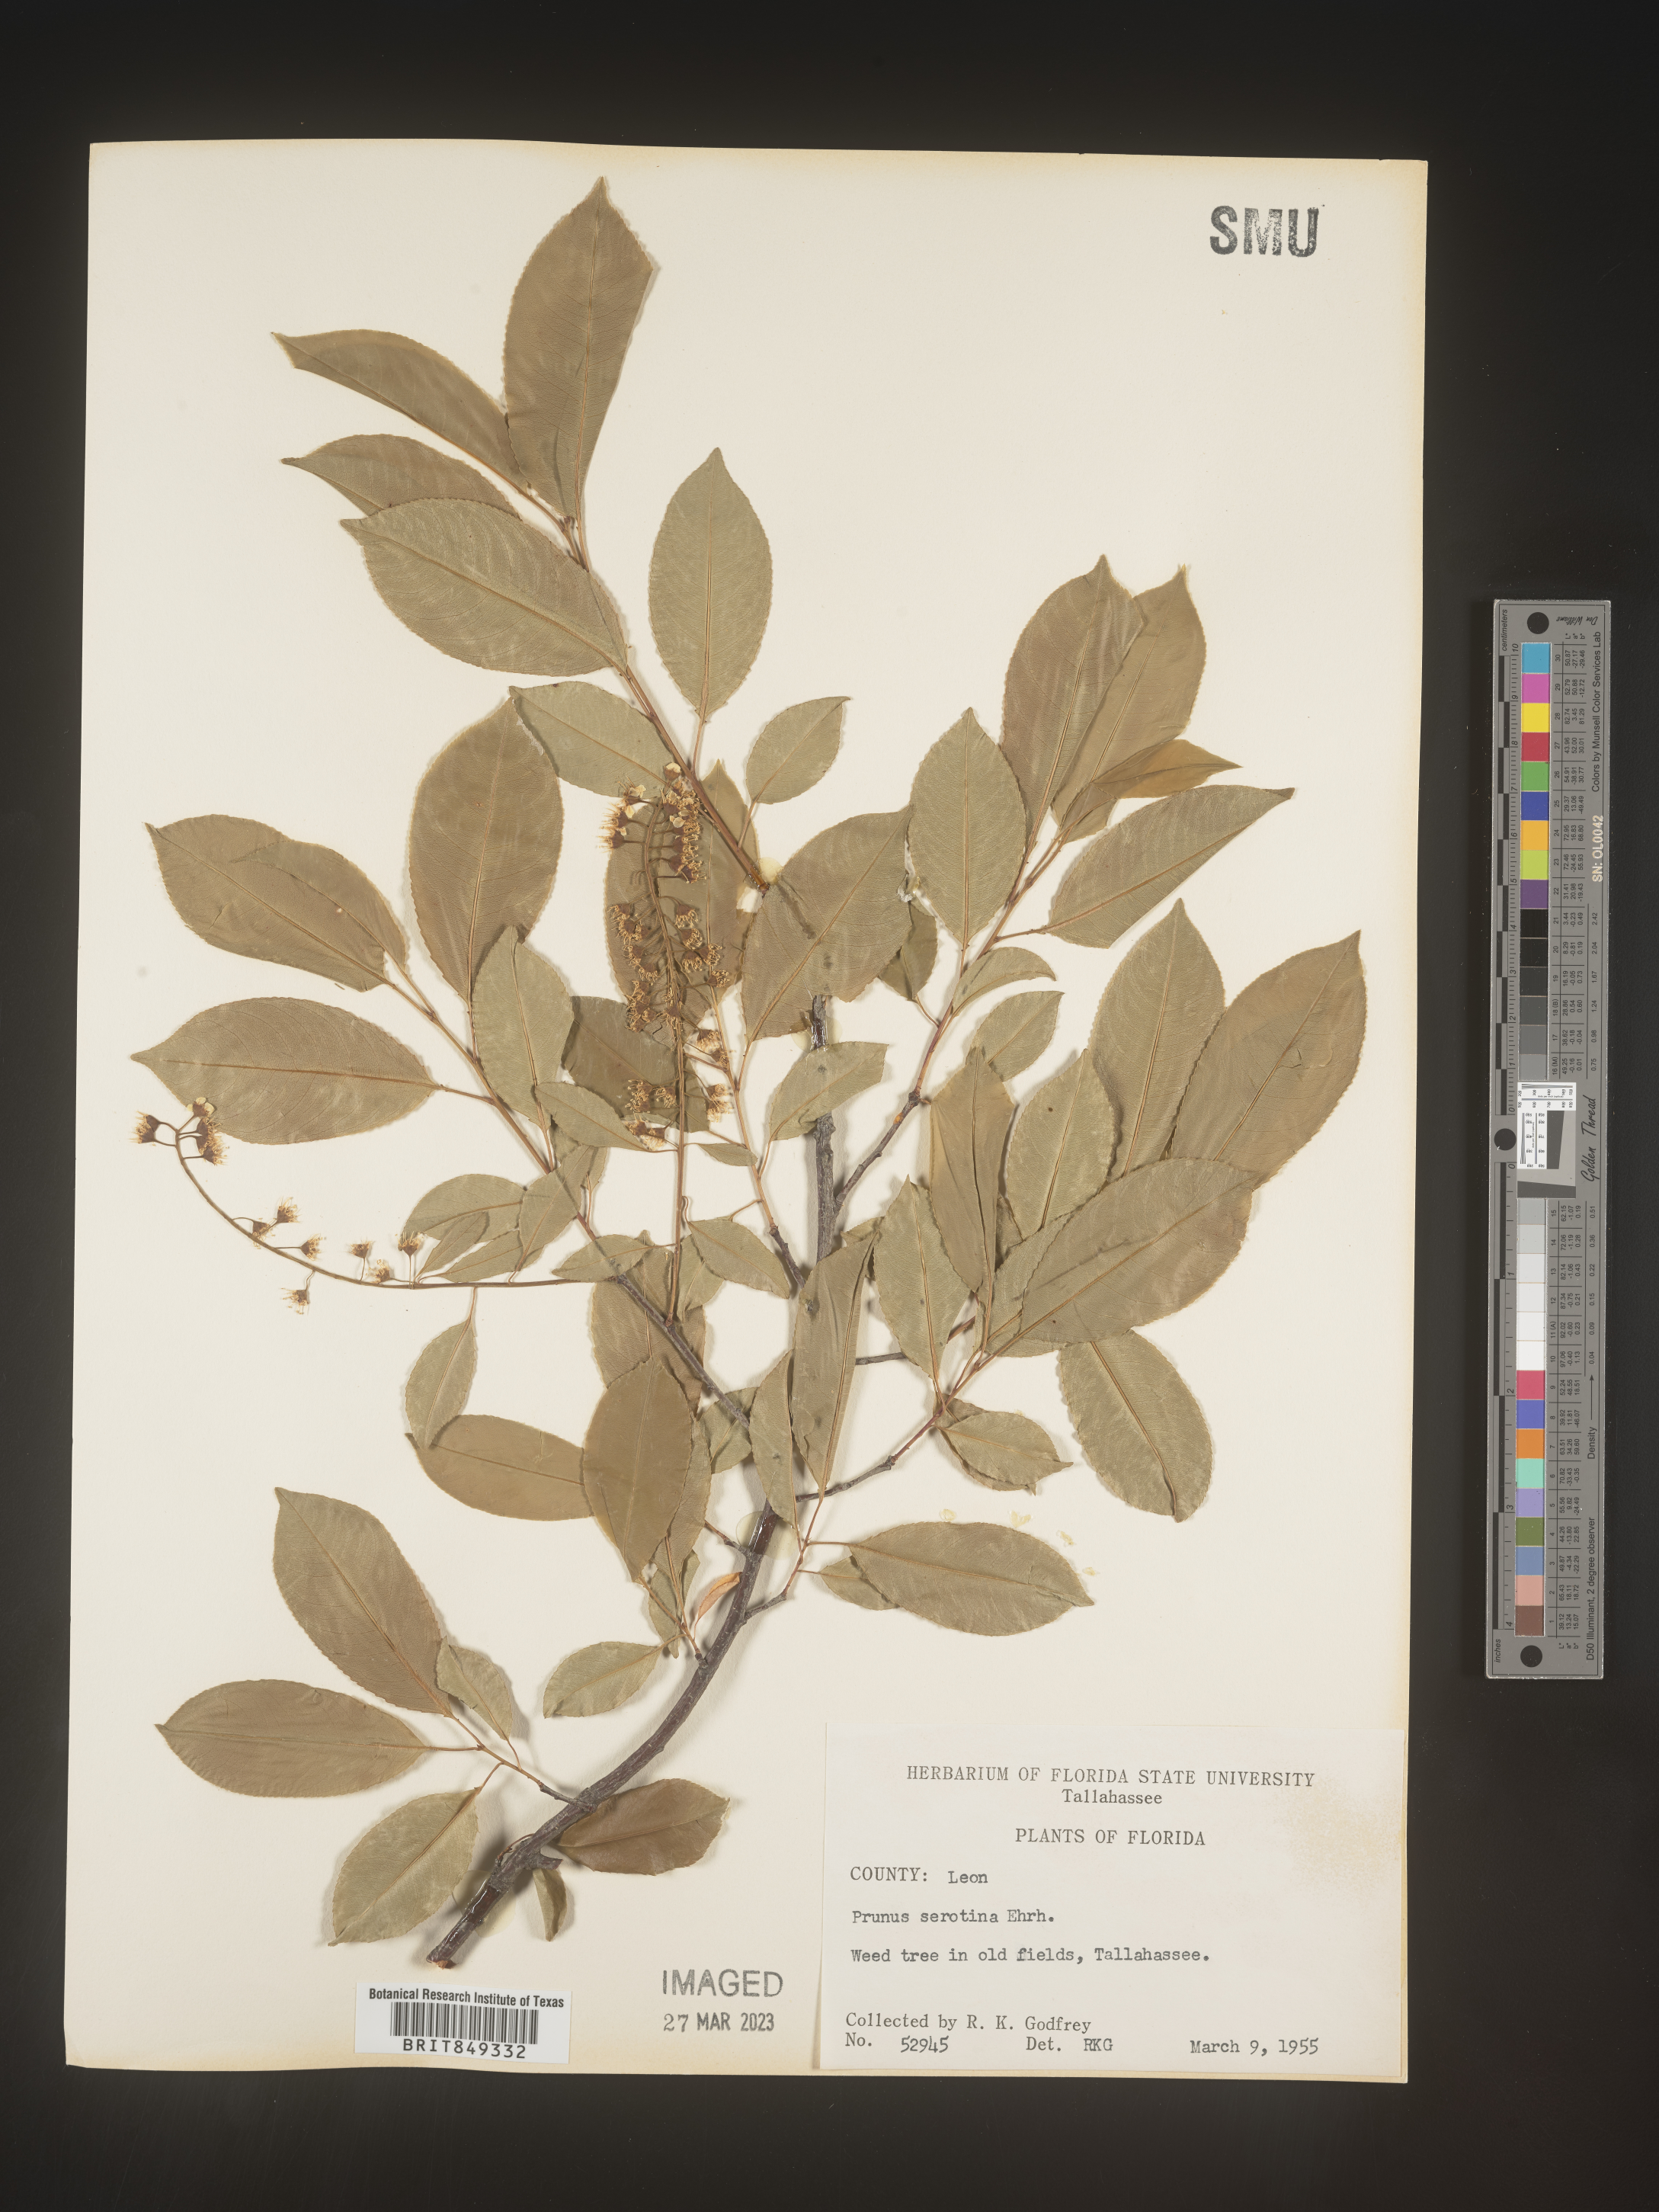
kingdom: Plantae
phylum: Tracheophyta
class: Magnoliopsida
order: Rosales
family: Rosaceae
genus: Prunus
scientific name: Prunus serotina
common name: Black cherry
